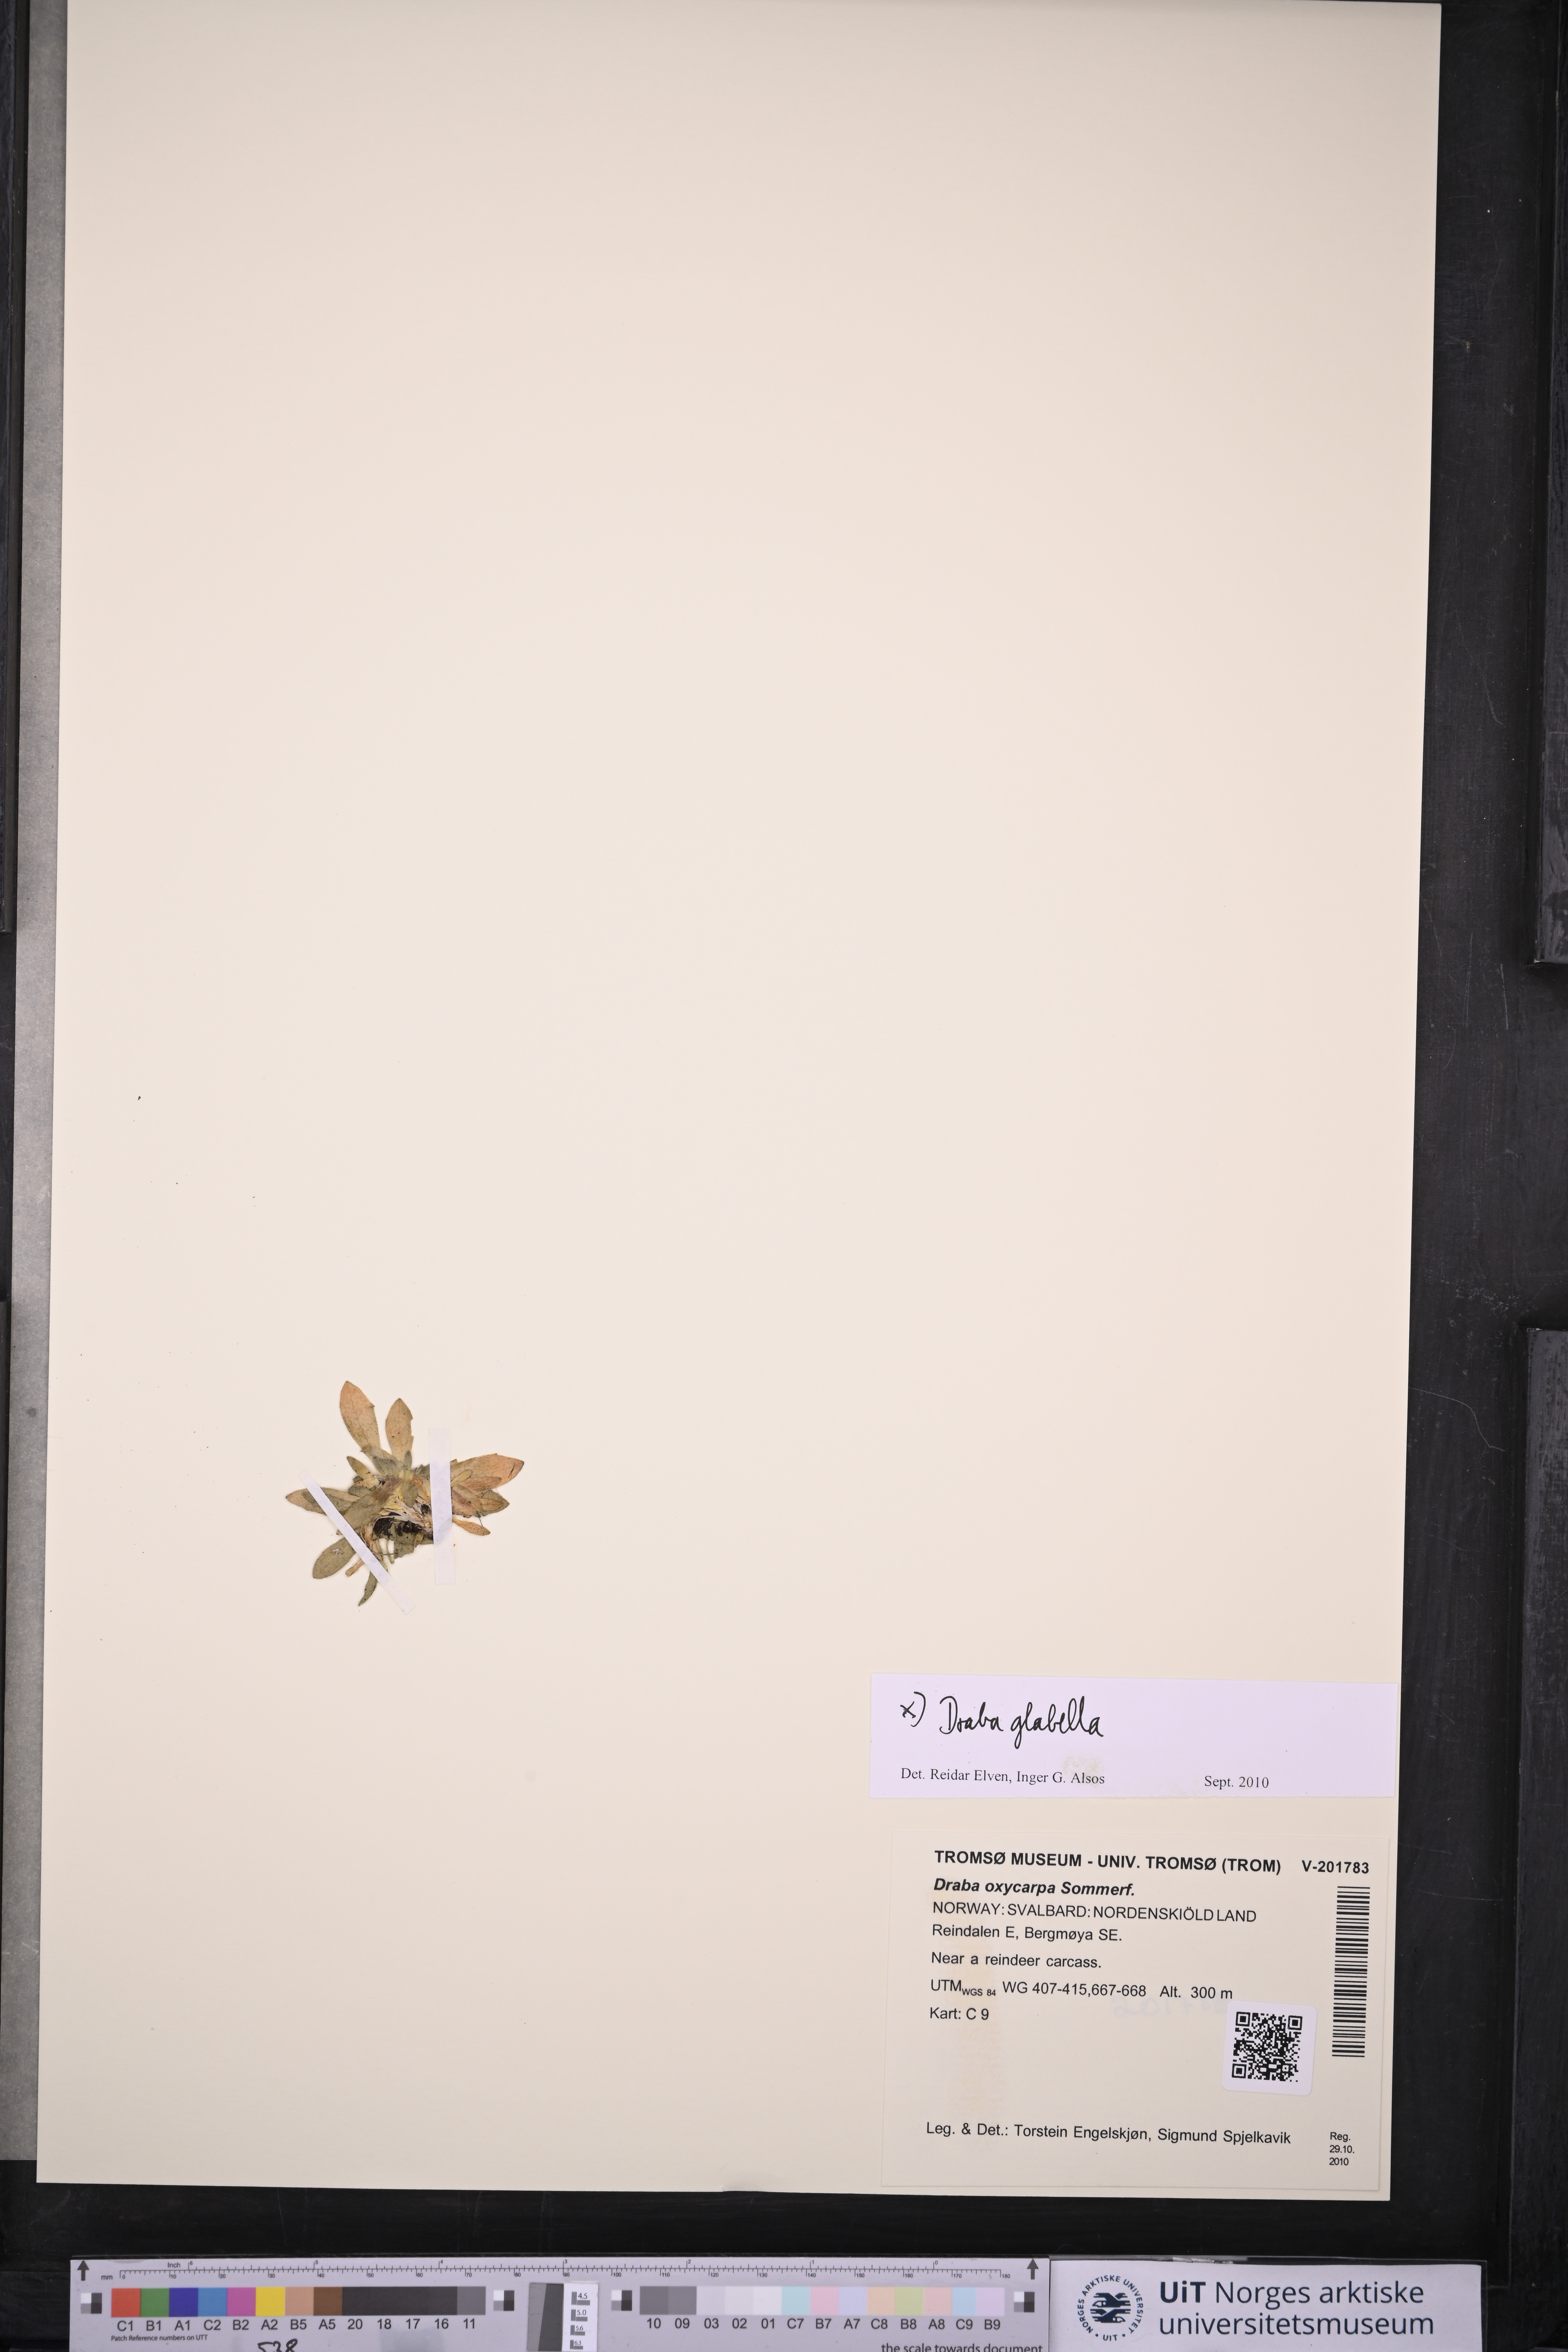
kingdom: Plantae
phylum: Tracheophyta
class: Magnoliopsida
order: Brassicales
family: Brassicaceae
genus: Draba
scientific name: Draba glabella
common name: Glaucous draba
